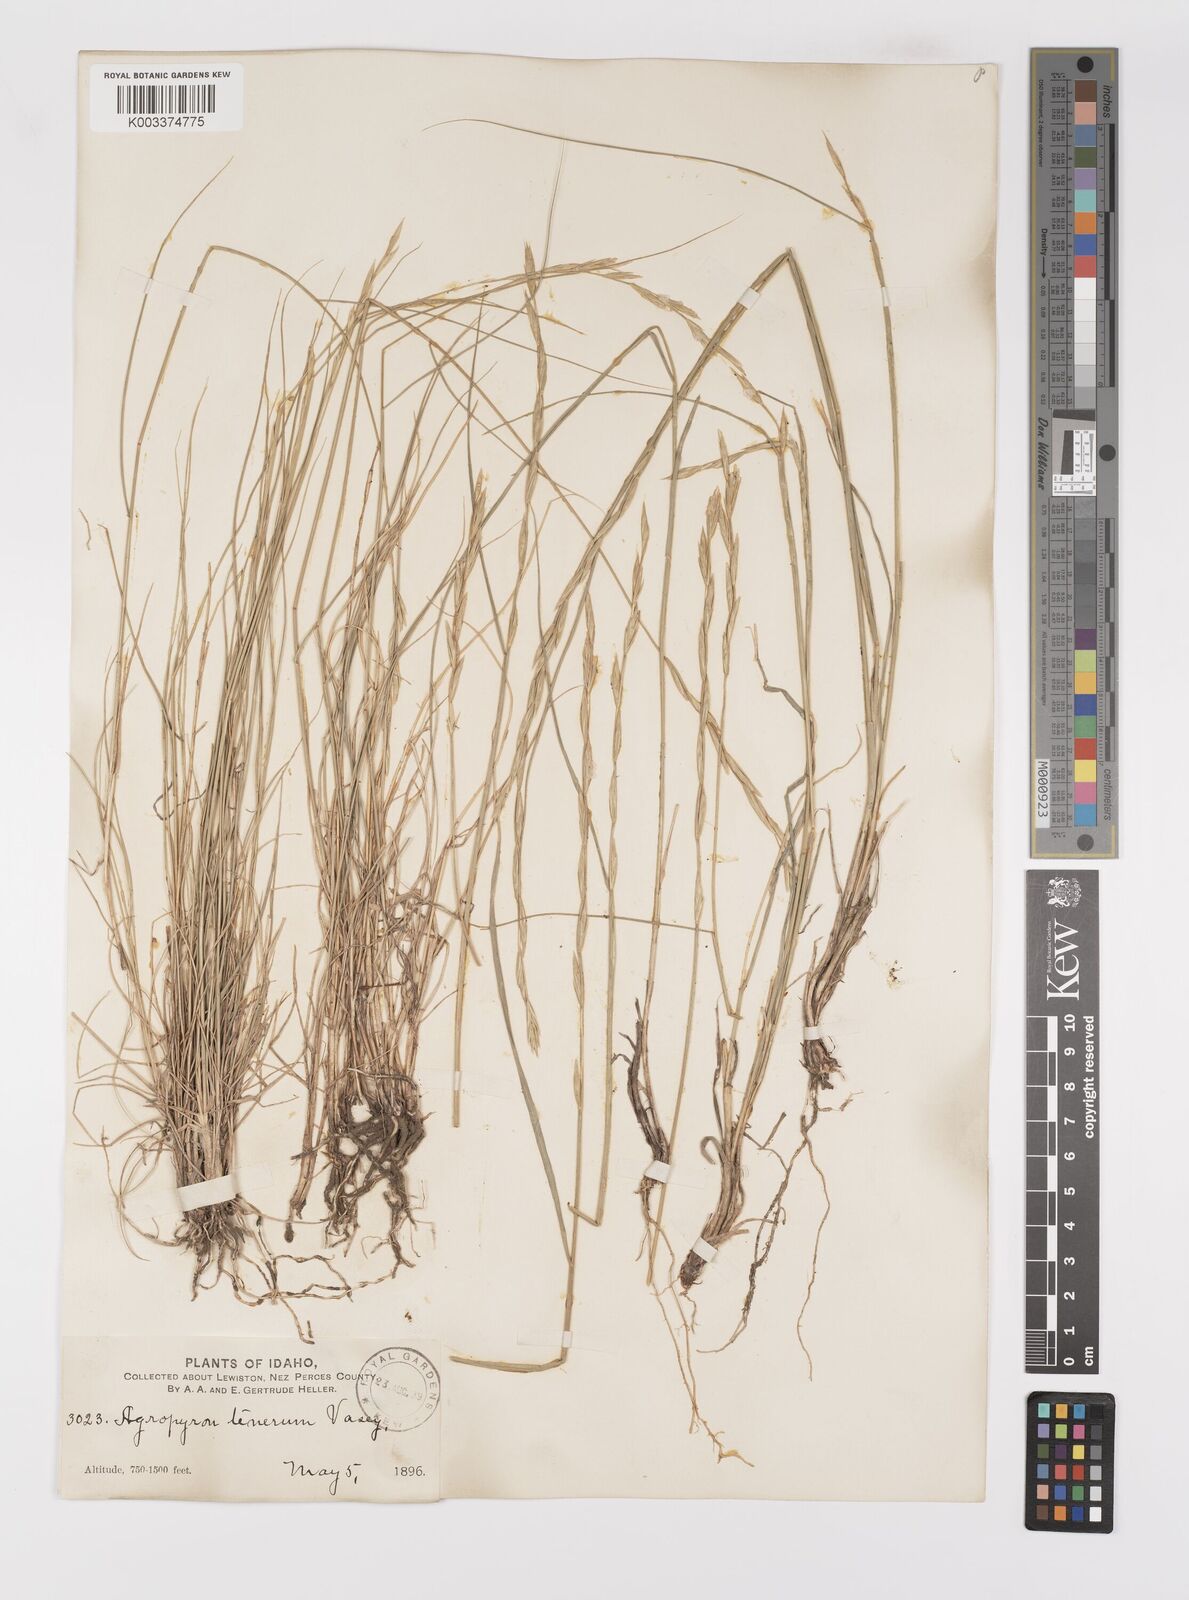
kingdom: Plantae
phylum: Tracheophyta
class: Liliopsida
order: Poales
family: Poaceae
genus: Elymus
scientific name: Elymus violaceus
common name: Arctic wheatgrass
